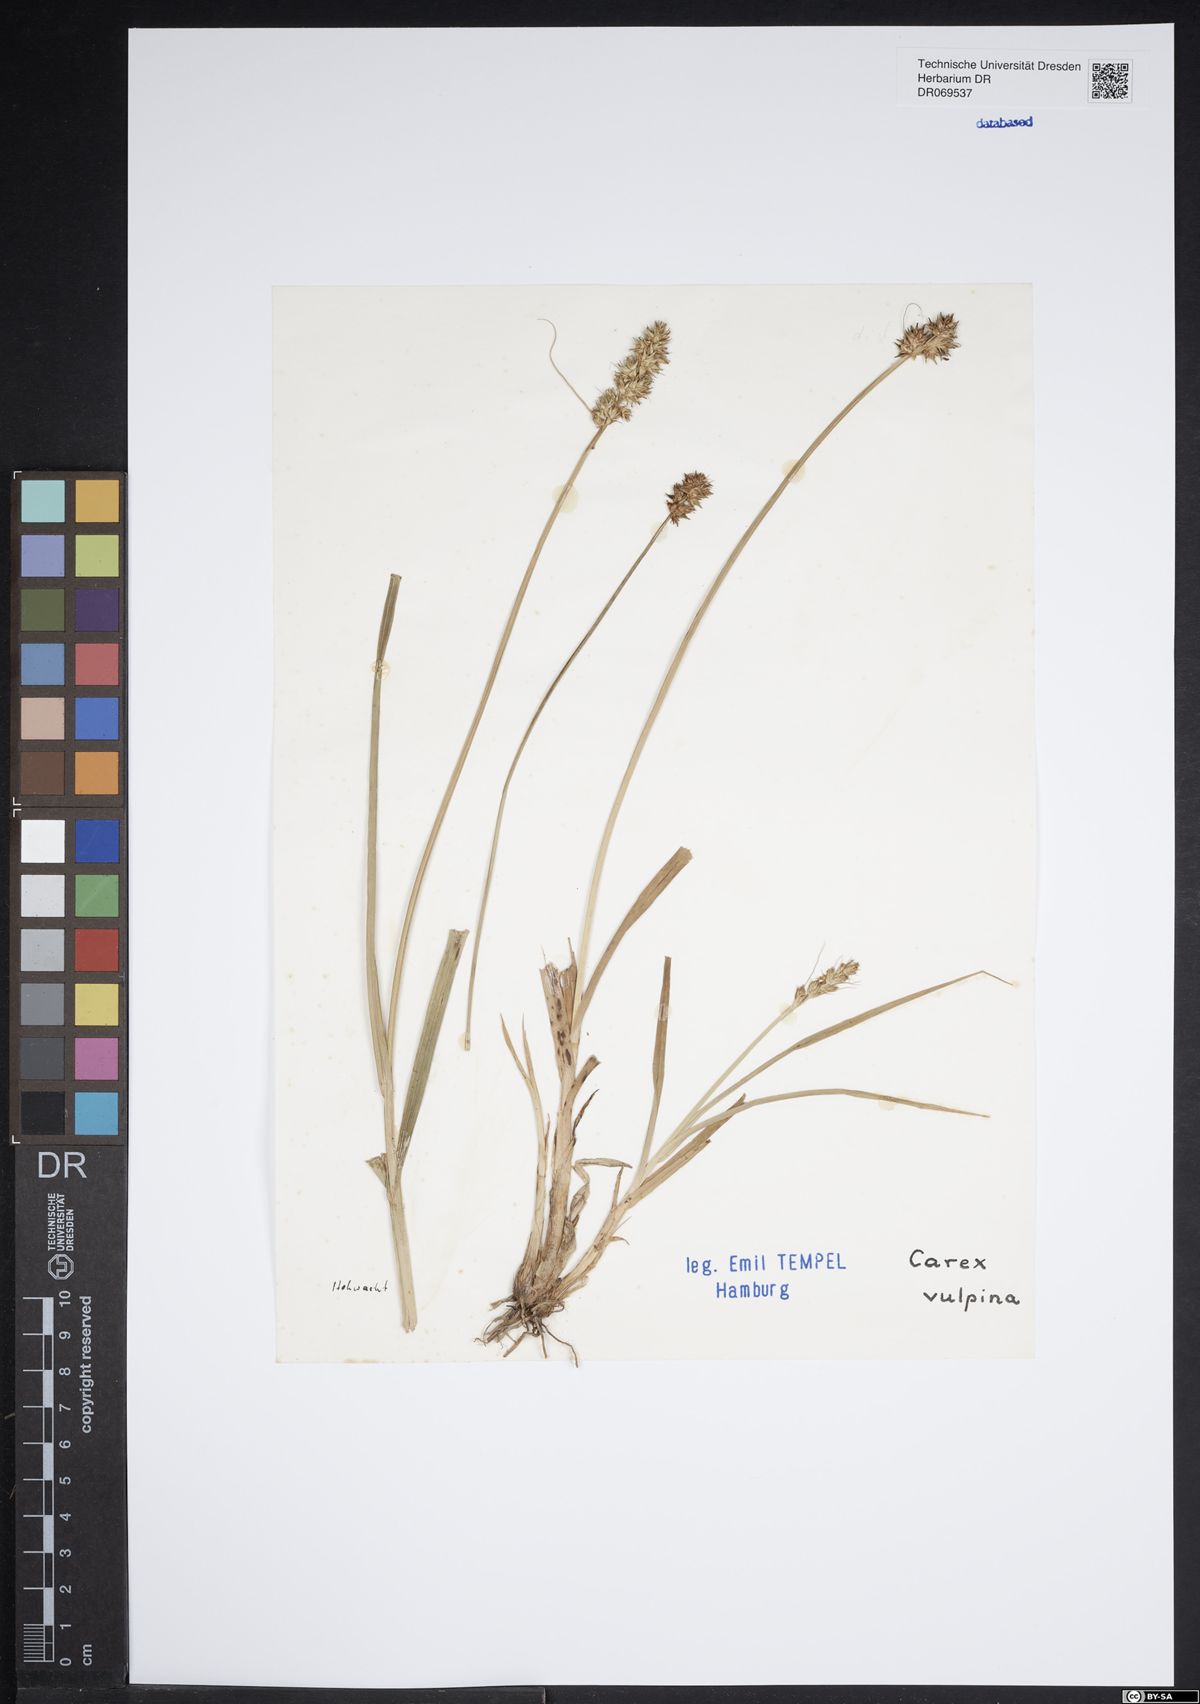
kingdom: Plantae
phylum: Tracheophyta
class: Liliopsida
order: Poales
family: Cyperaceae
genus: Carex
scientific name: Carex vulpina
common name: True fox-sedge
